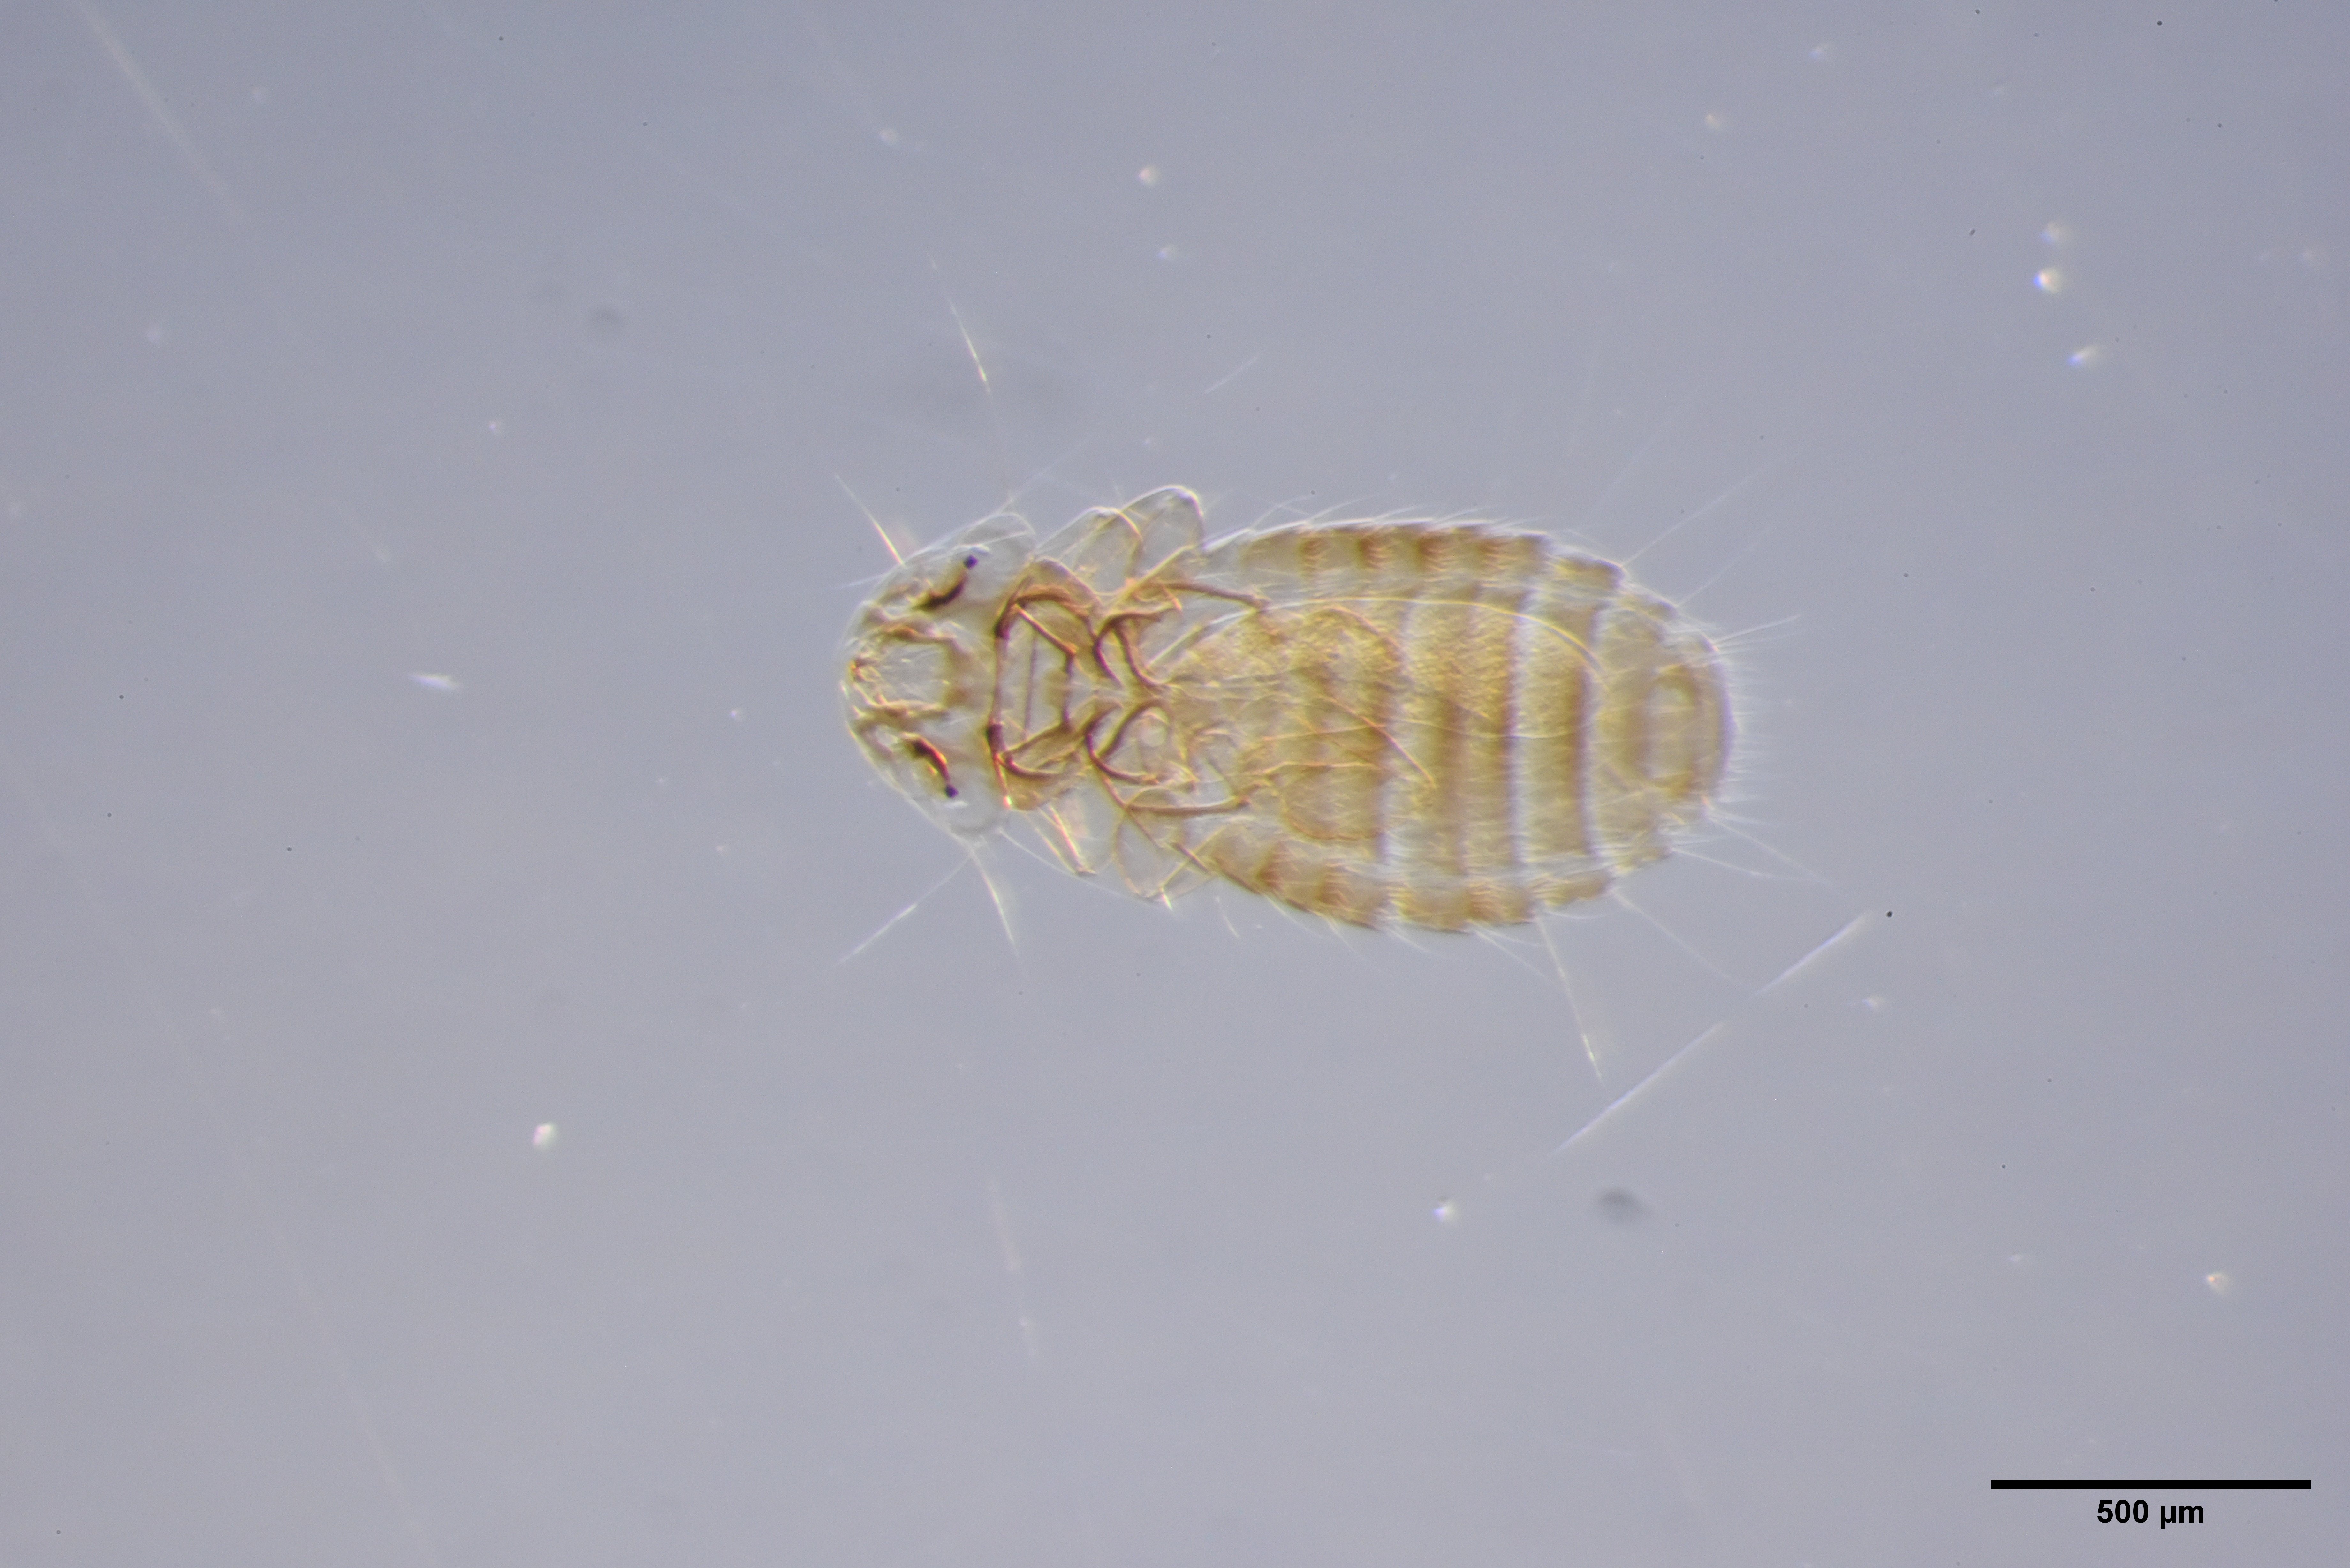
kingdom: Animalia
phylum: Arthropoda
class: Insecta
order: Psocodea
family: Menoponidae
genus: Menacanthus
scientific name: Menacanthus eurysternus
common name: Louse
